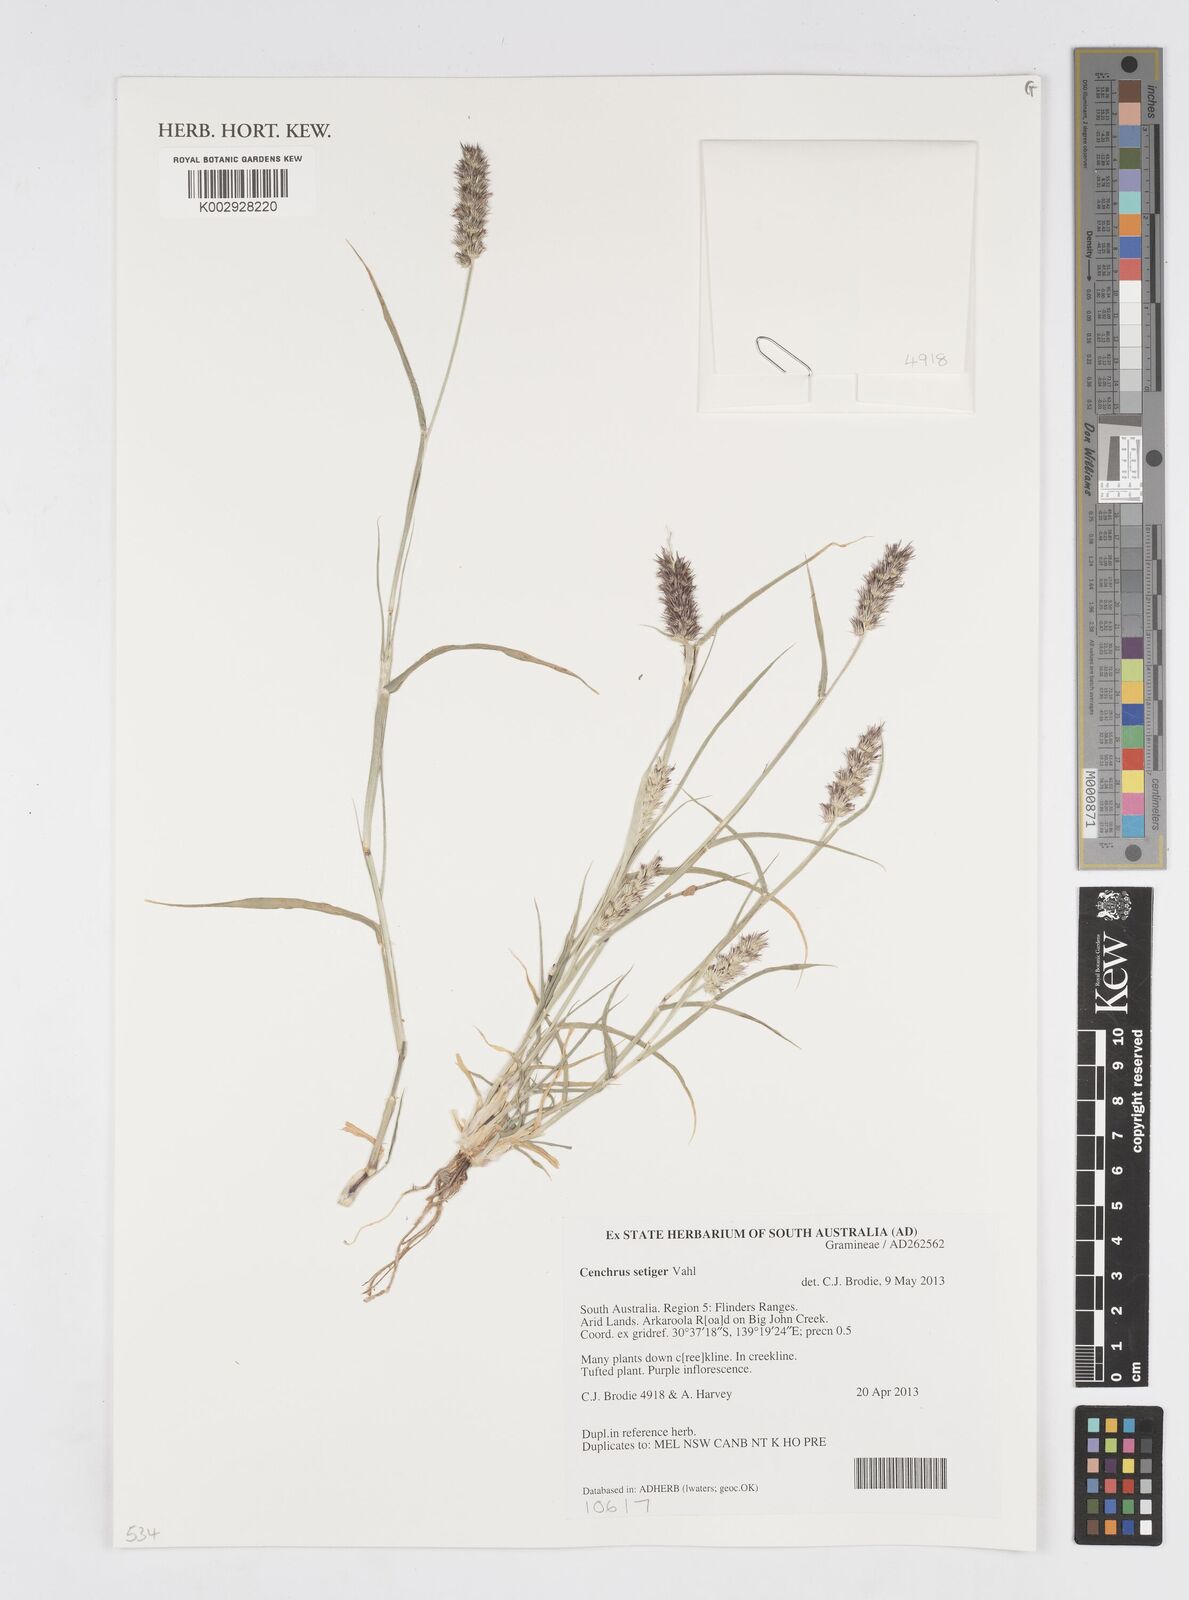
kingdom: Plantae
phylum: Tracheophyta
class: Liliopsida
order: Poales
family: Poaceae
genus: Cenchrus
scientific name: Cenchrus setigerus
